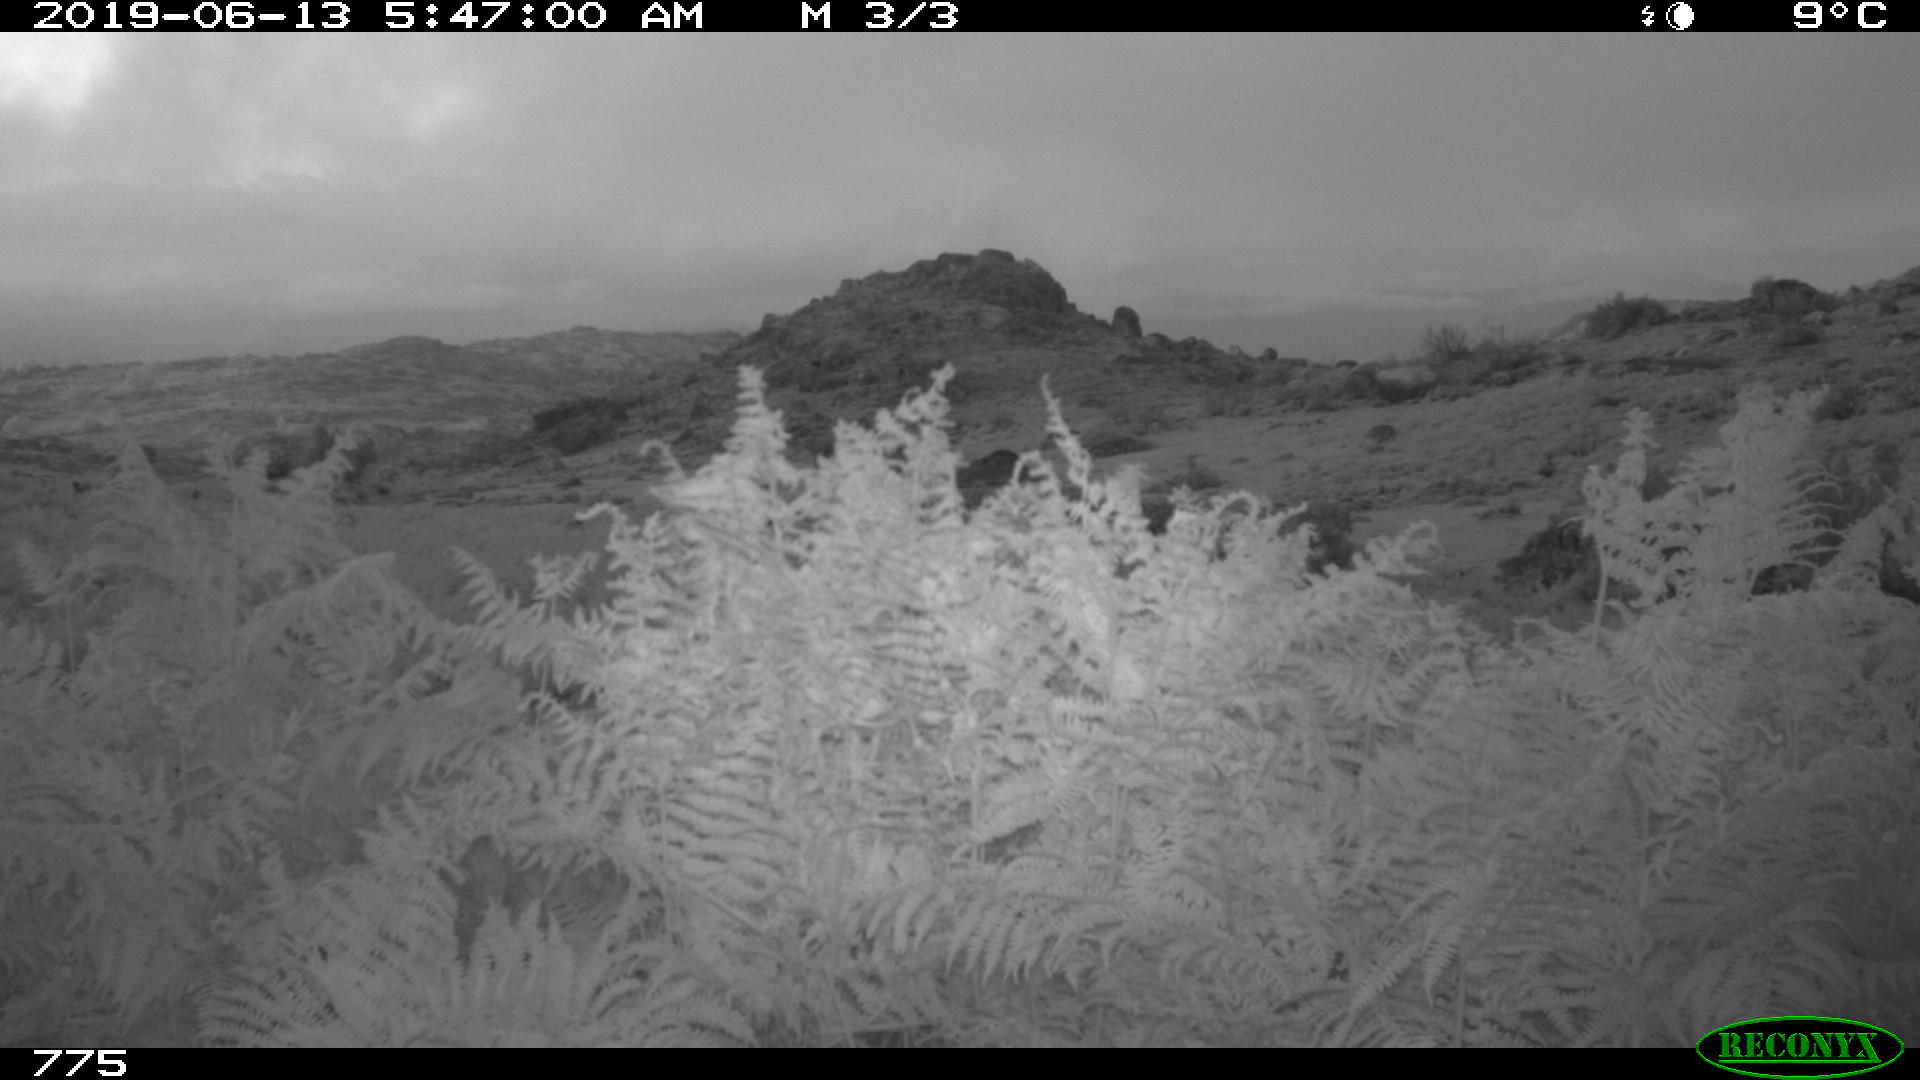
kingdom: Animalia
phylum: Chordata
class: Mammalia
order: Perissodactyla
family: Equidae
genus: Equus
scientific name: Equus caballus
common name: Horse
